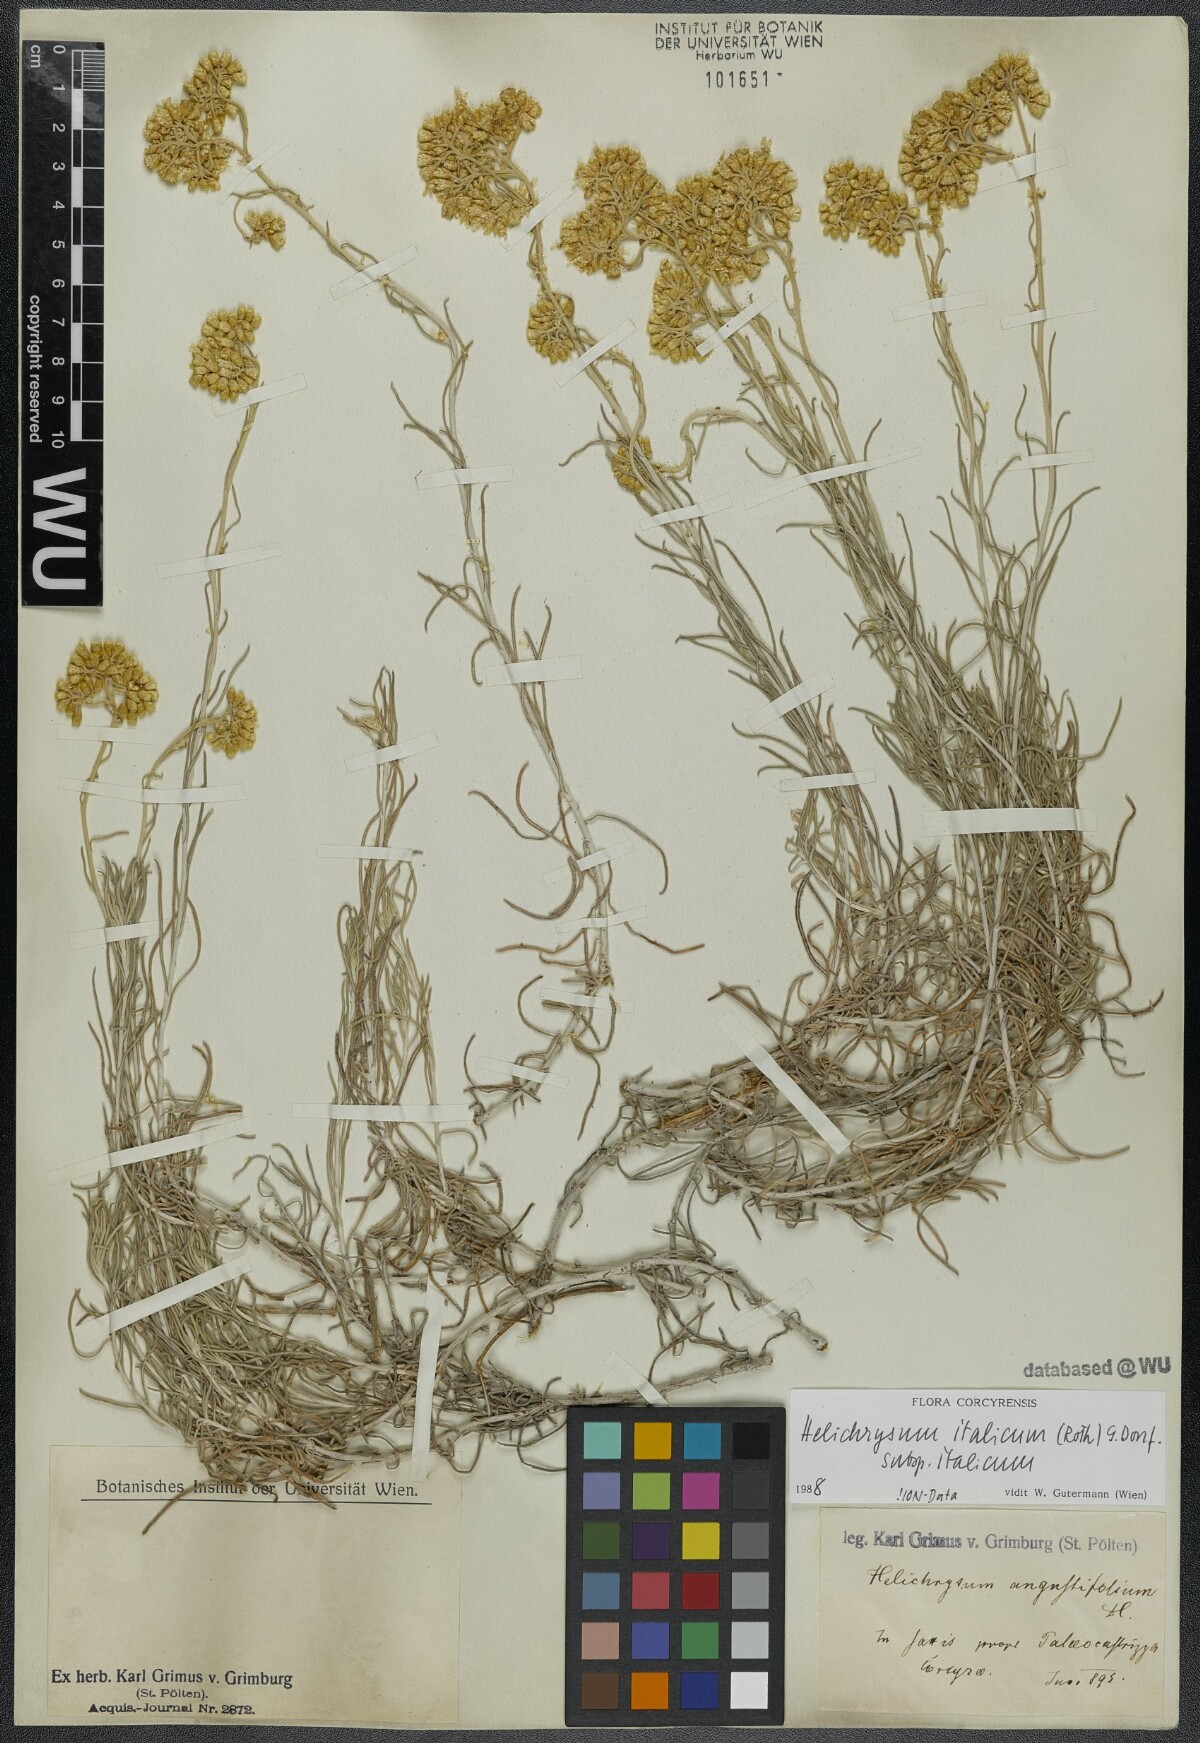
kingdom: Plantae
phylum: Tracheophyta
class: Magnoliopsida
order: Asterales
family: Asteraceae
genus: Helichrysum
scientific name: Helichrysum italicum
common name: Curryplant
